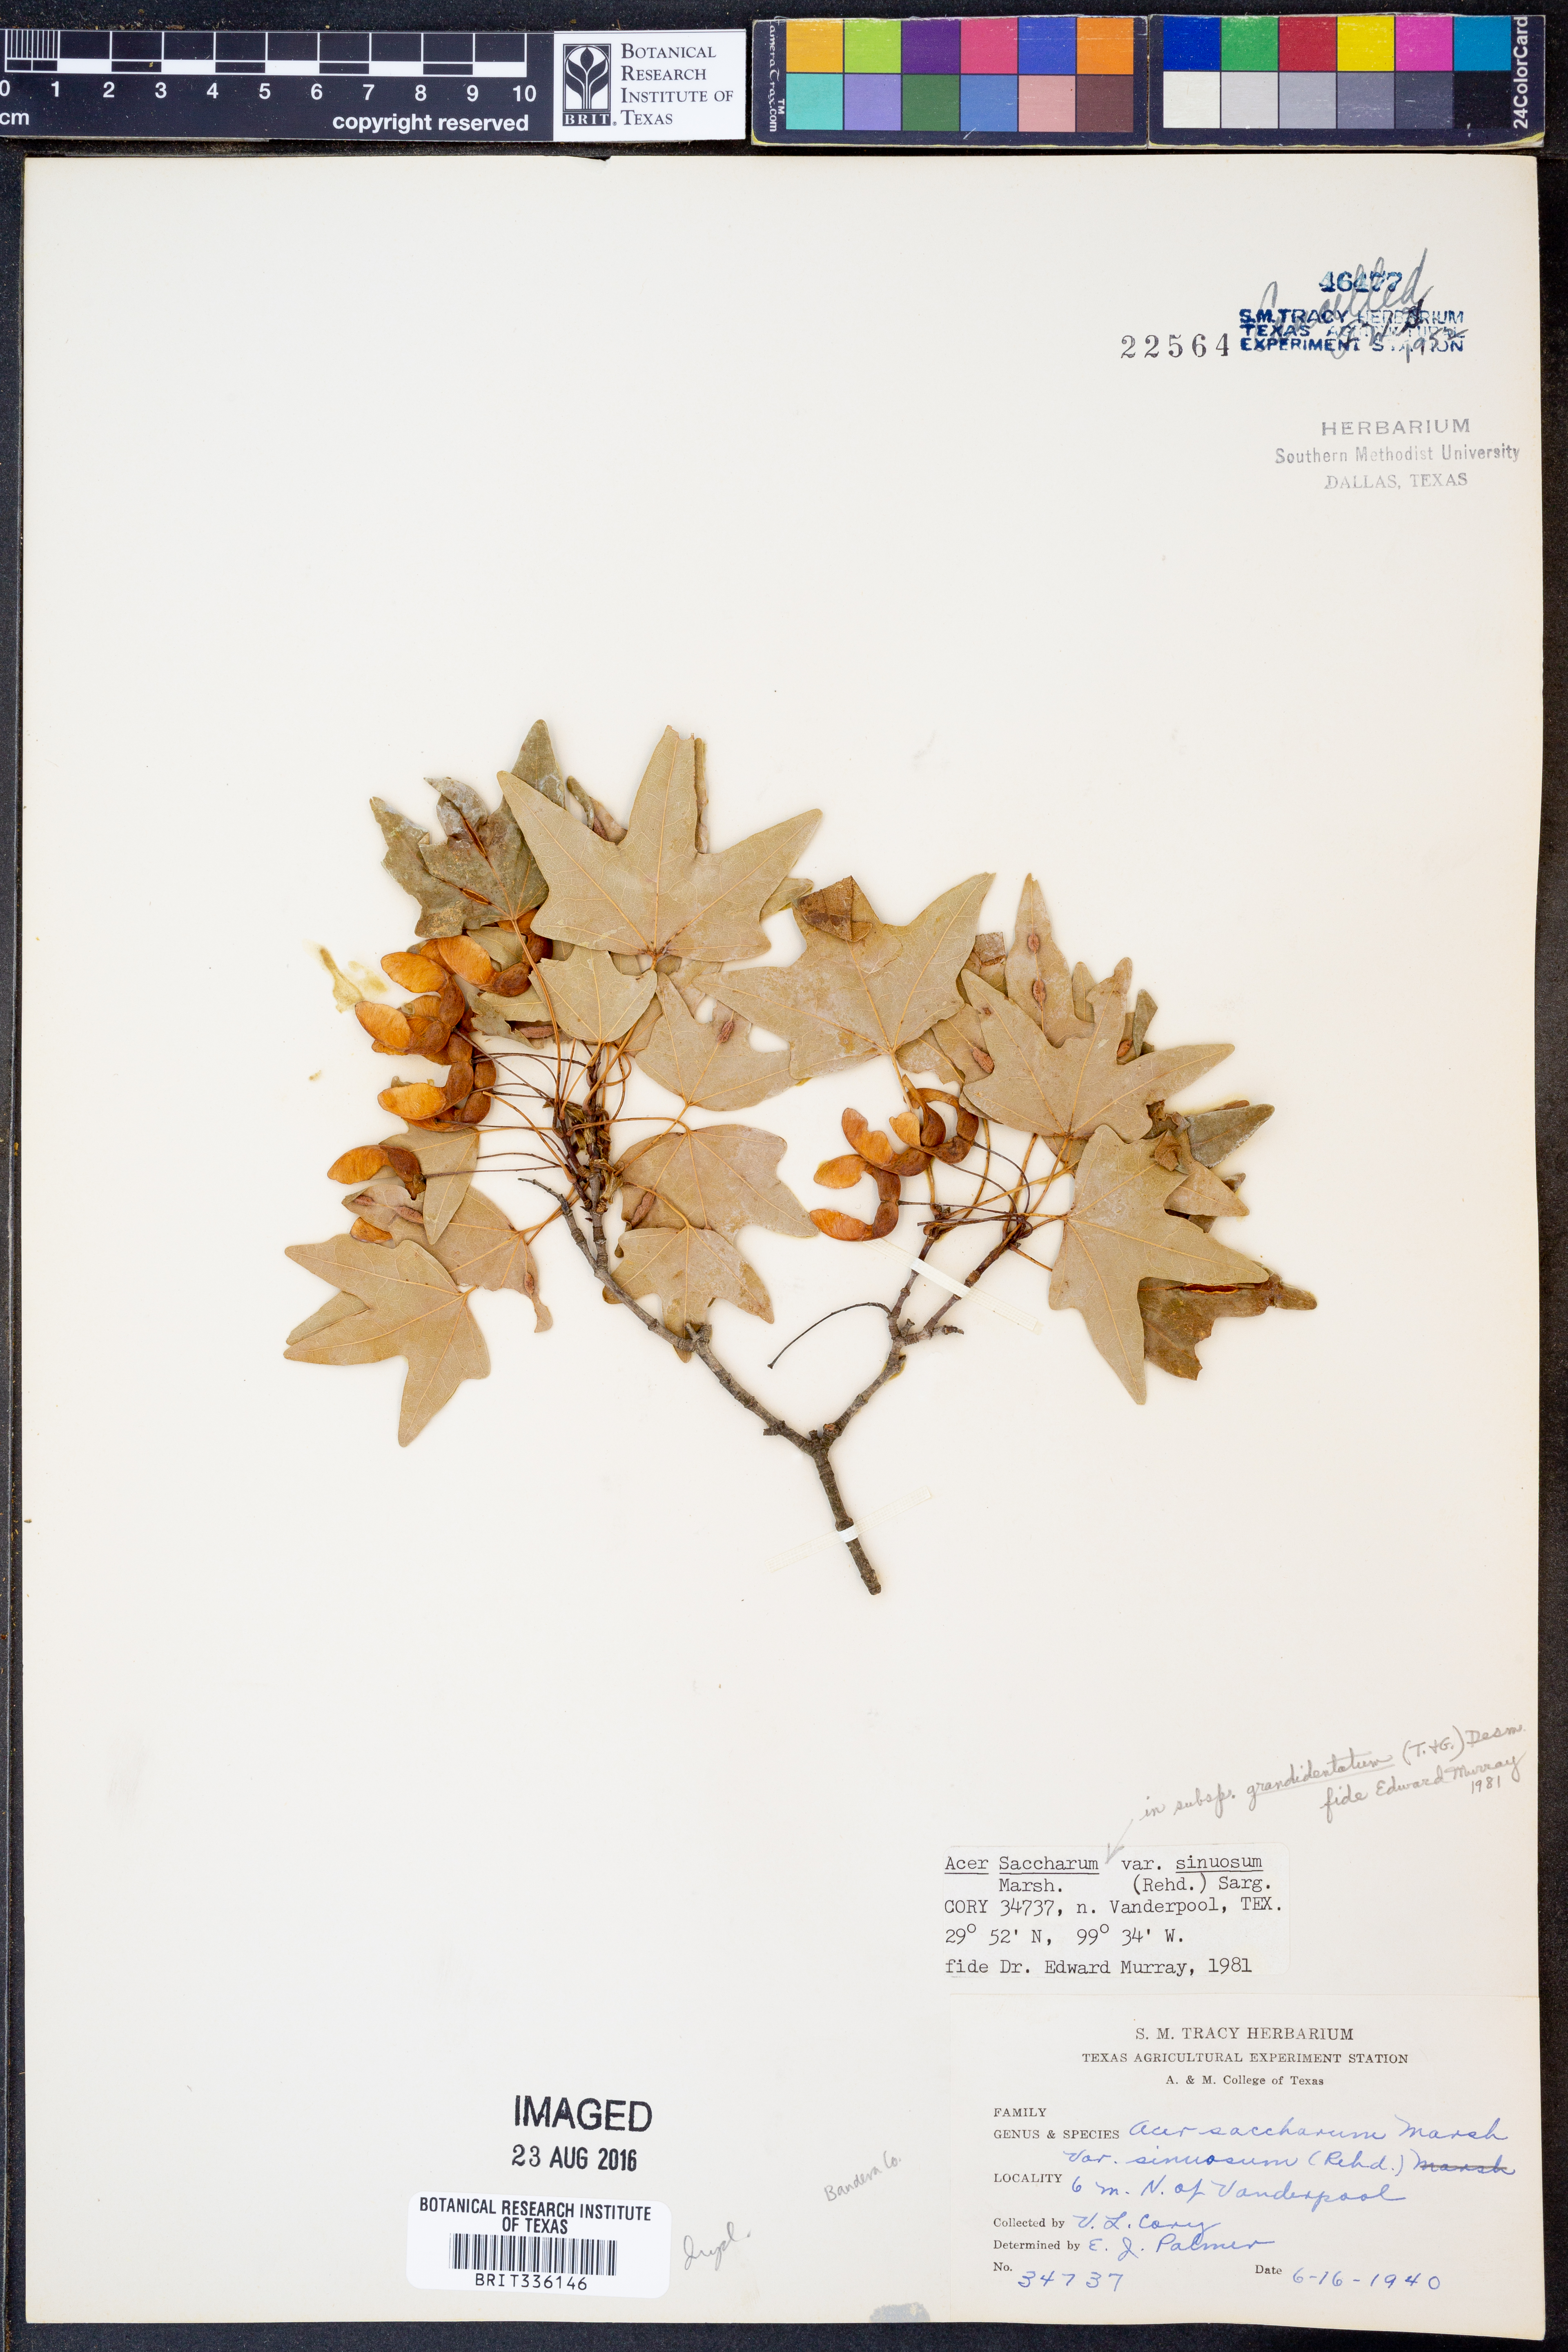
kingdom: Plantae
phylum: Tracheophyta
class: Magnoliopsida
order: Sapindales
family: Sapindaceae
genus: Acer
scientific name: Acer grandidentatum
